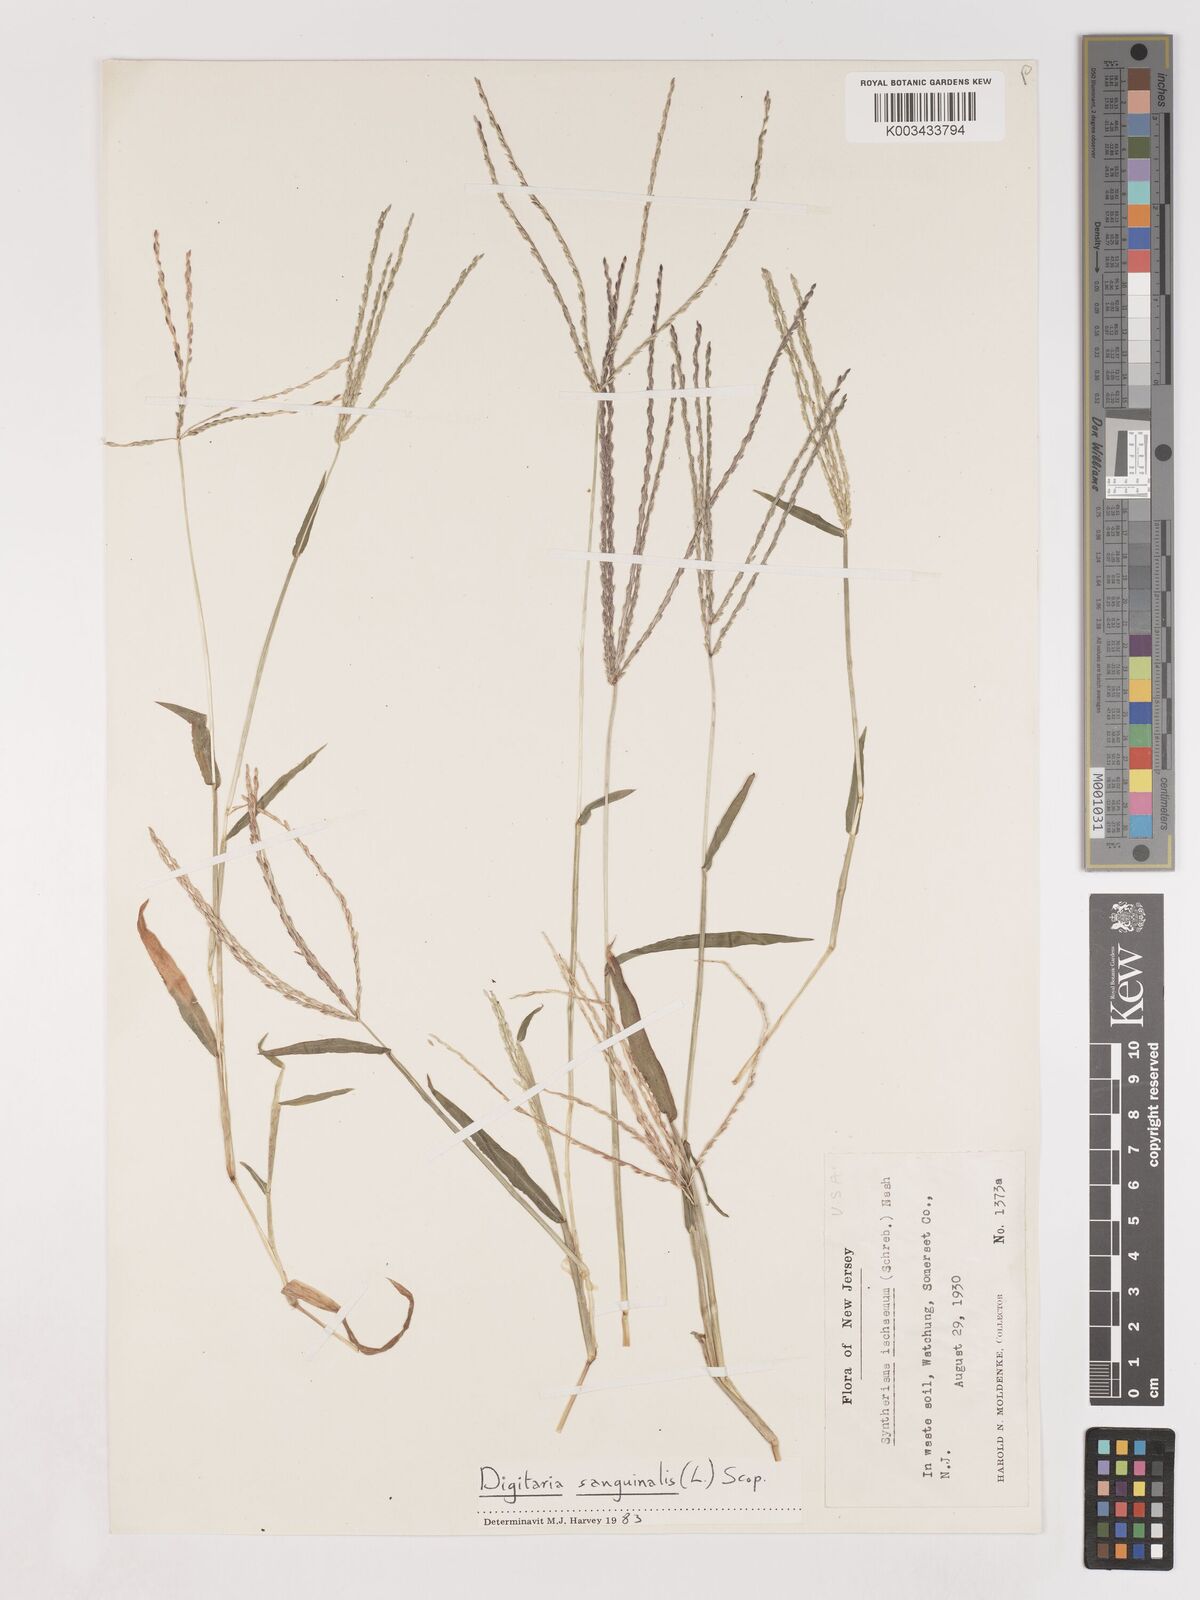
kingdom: Plantae
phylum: Tracheophyta
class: Liliopsida
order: Poales
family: Poaceae
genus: Digitaria
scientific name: Digitaria sanguinalis
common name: Hairy crabgrass
